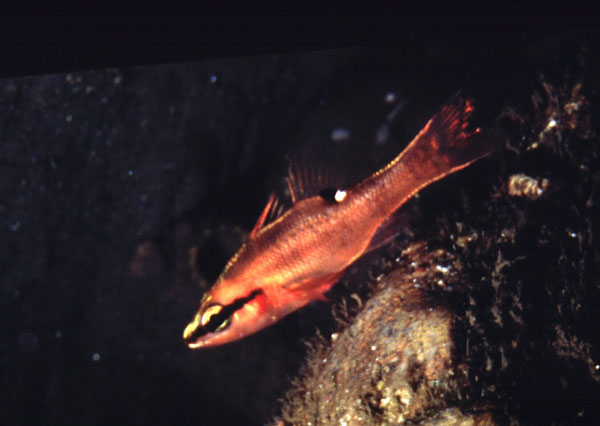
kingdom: Animalia
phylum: Chordata
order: Perciformes
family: Apogonidae
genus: Zapogon
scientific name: Zapogon evermanni
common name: Cave cardinalfish
